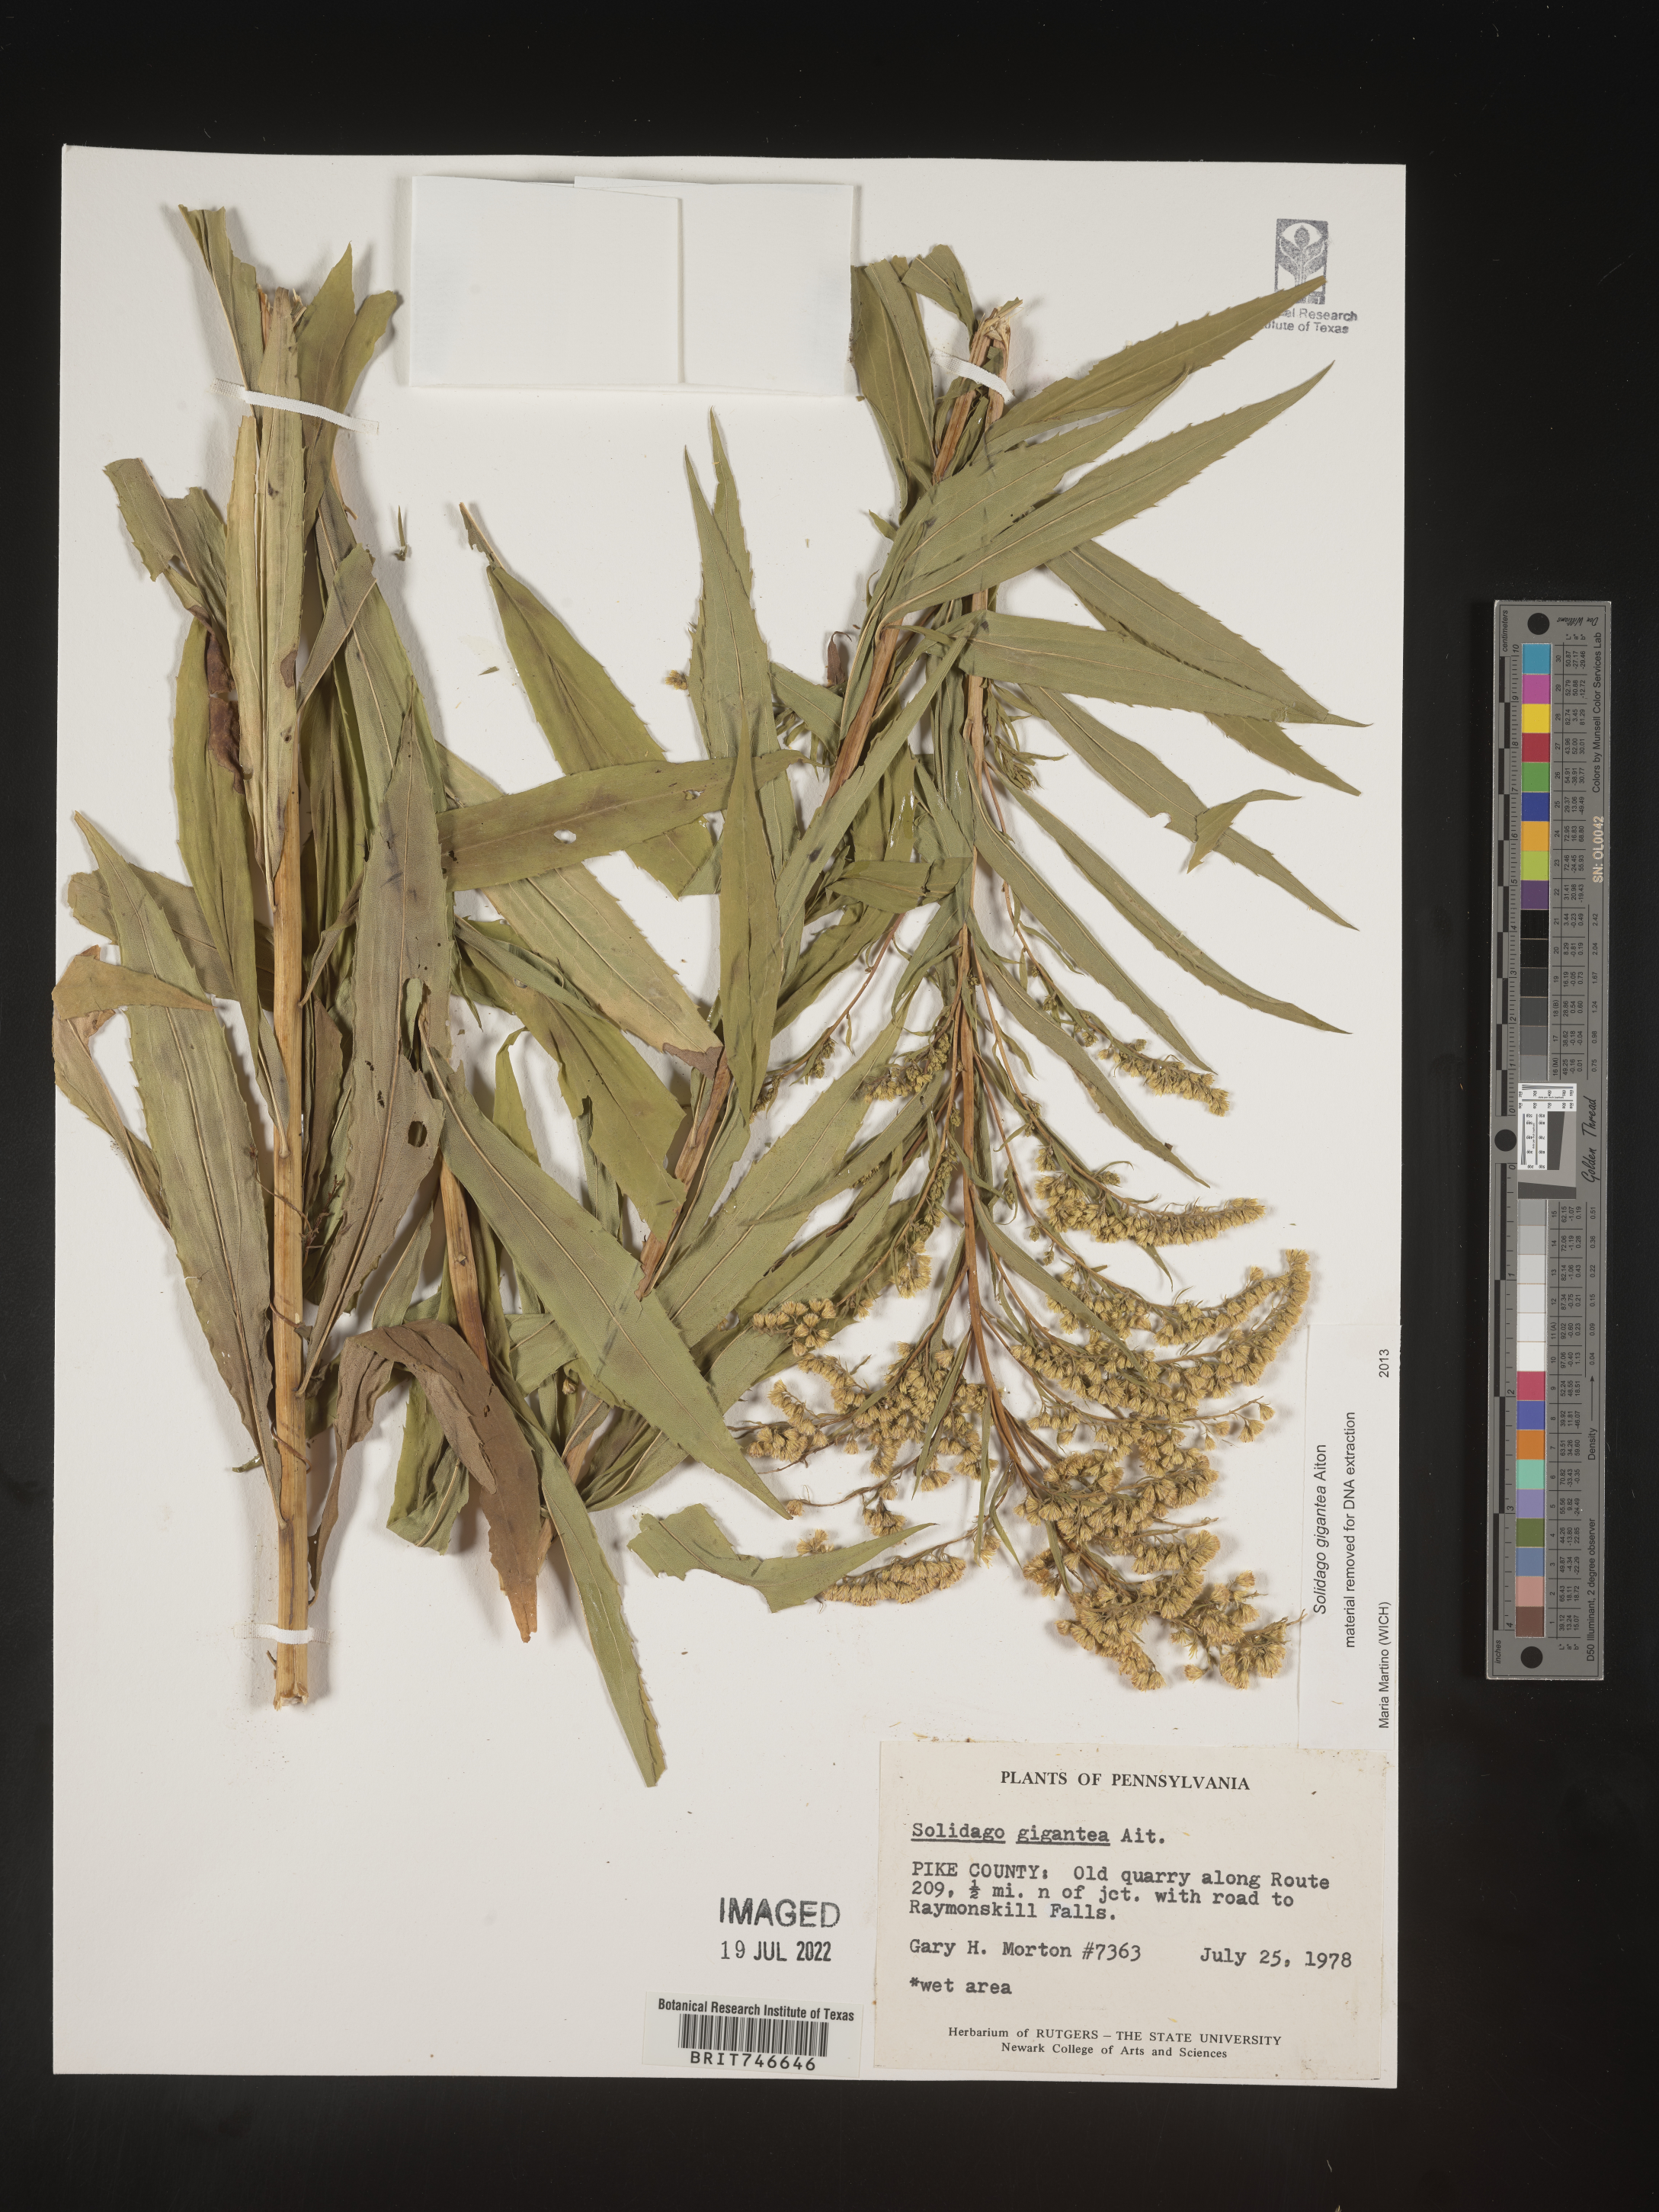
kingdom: Plantae
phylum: Tracheophyta
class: Magnoliopsida
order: Asterales
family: Asteraceae
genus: Solidago
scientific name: Solidago gigantea
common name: Giant goldenrod
